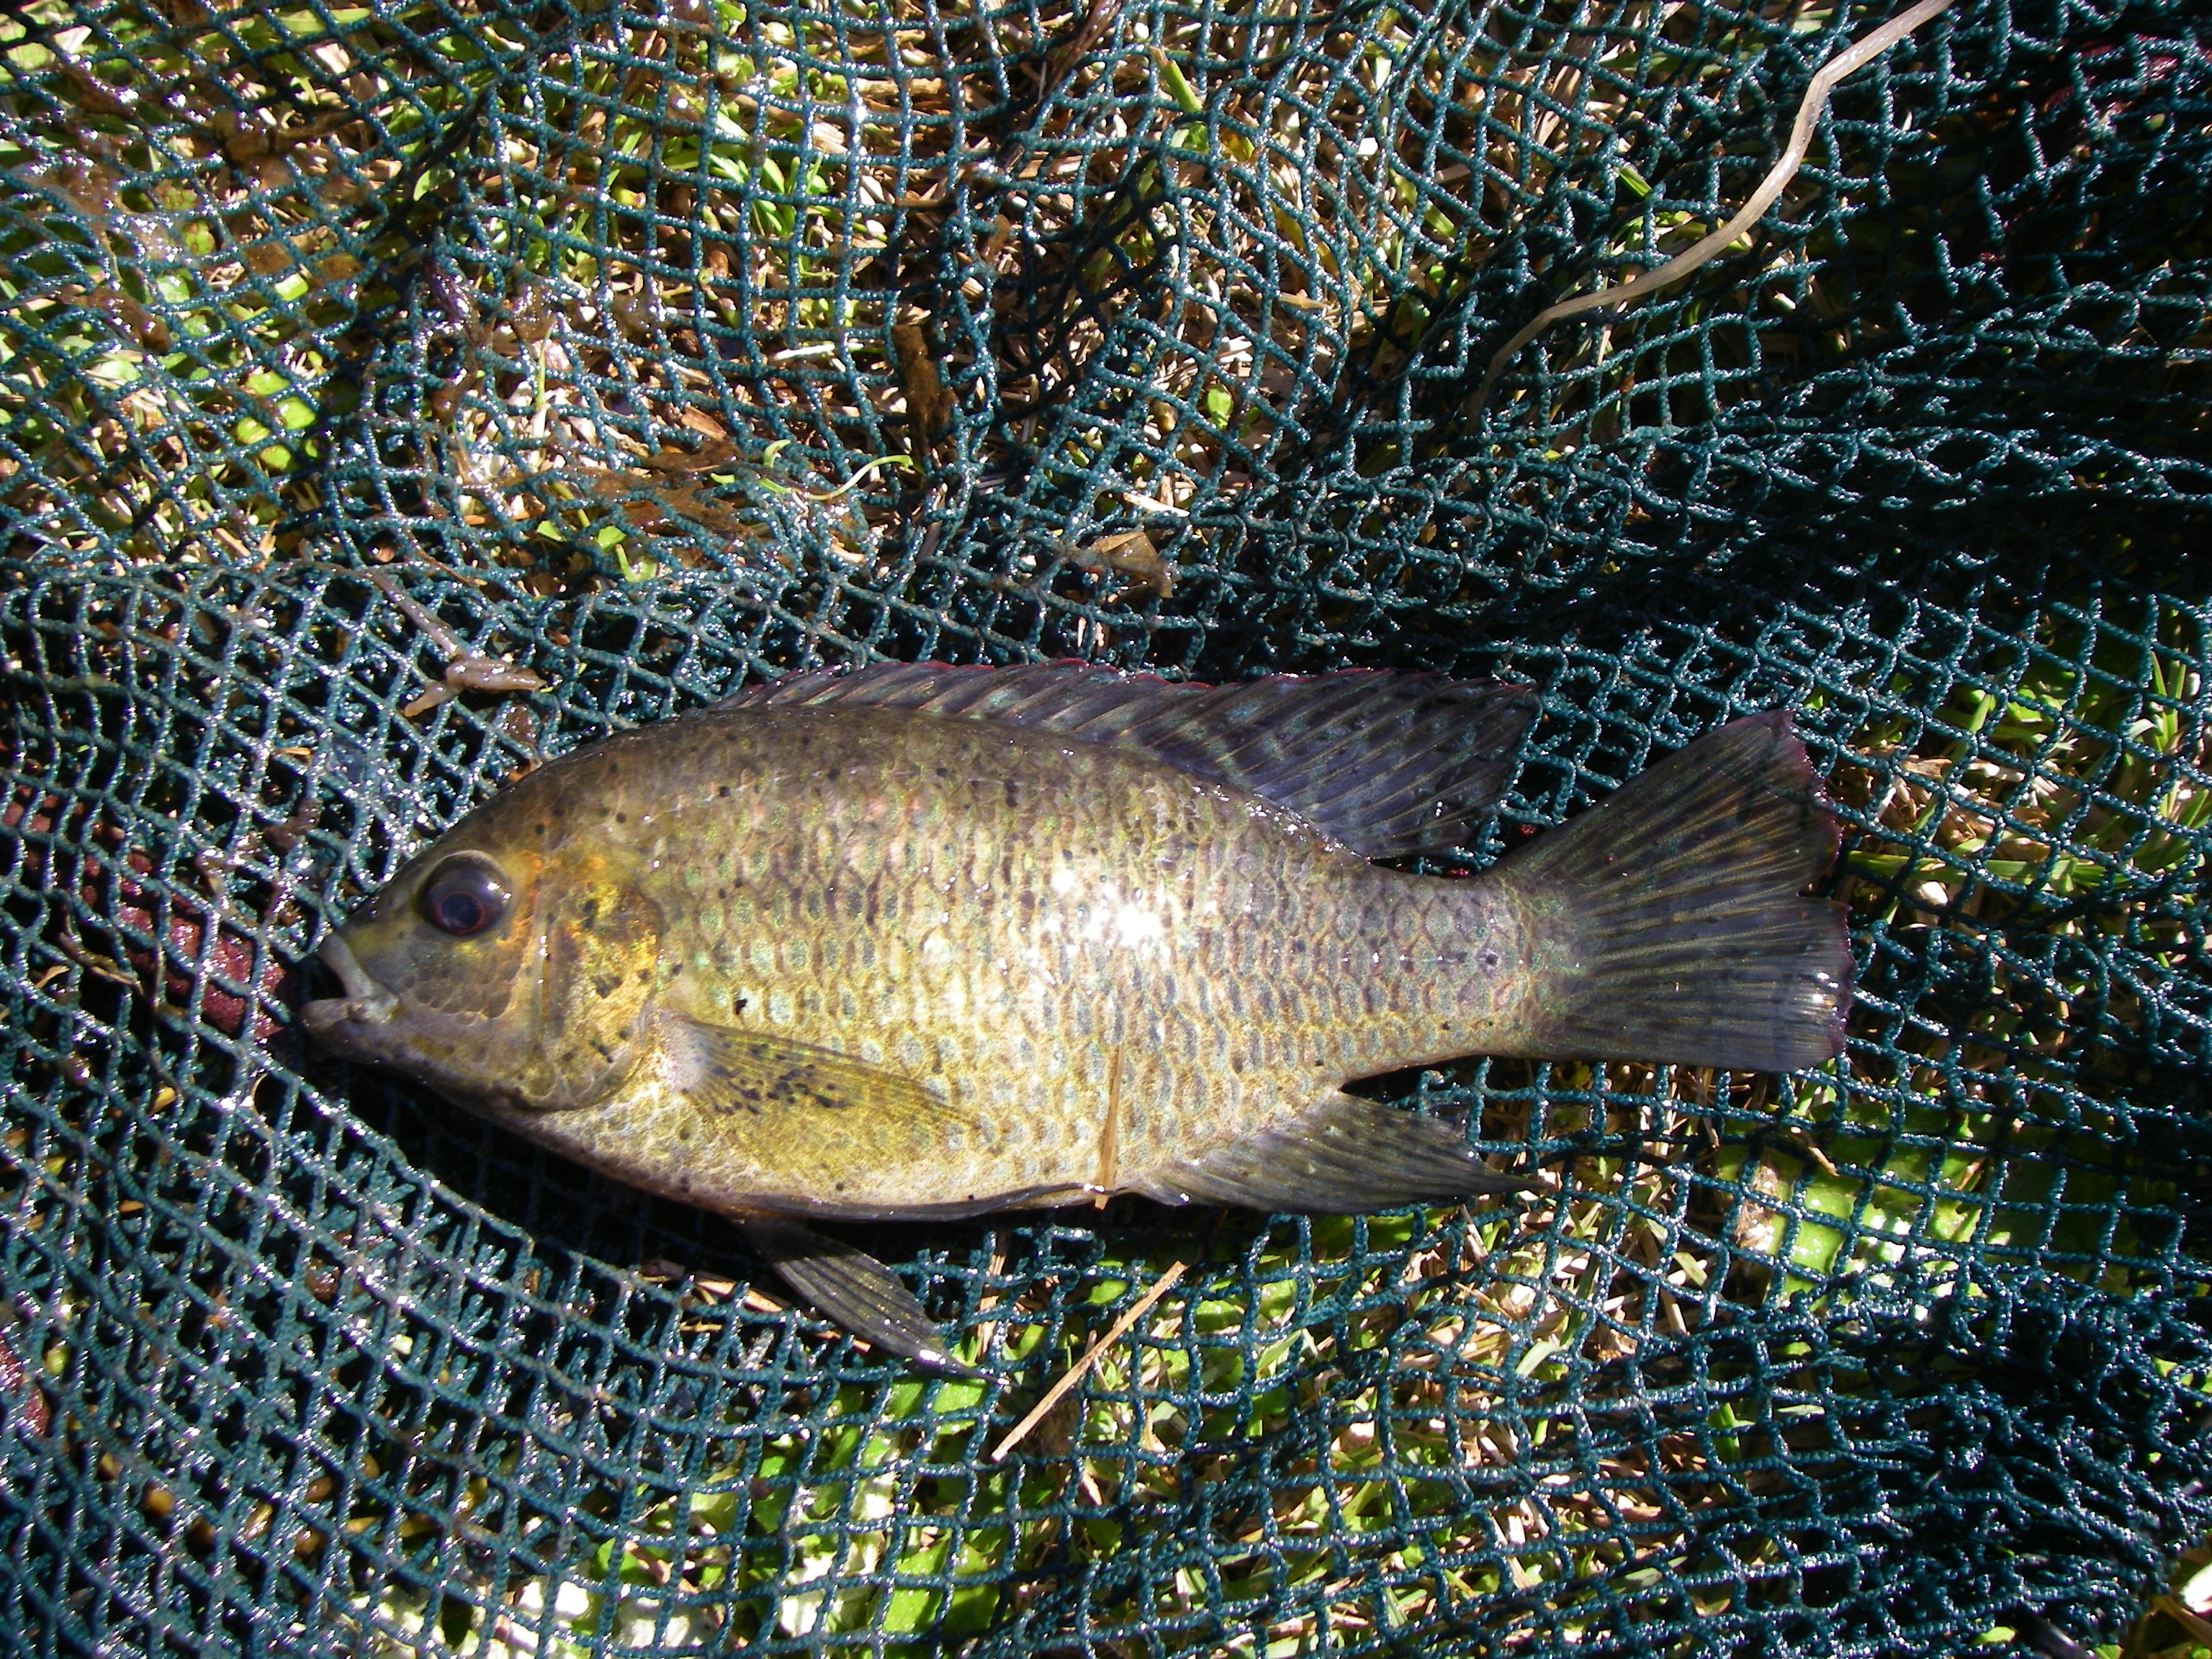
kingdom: Animalia
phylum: Chordata
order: Perciformes
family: Cichlidae
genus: Tilapia
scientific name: Tilapia sparrmanii
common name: Banded tilapia
